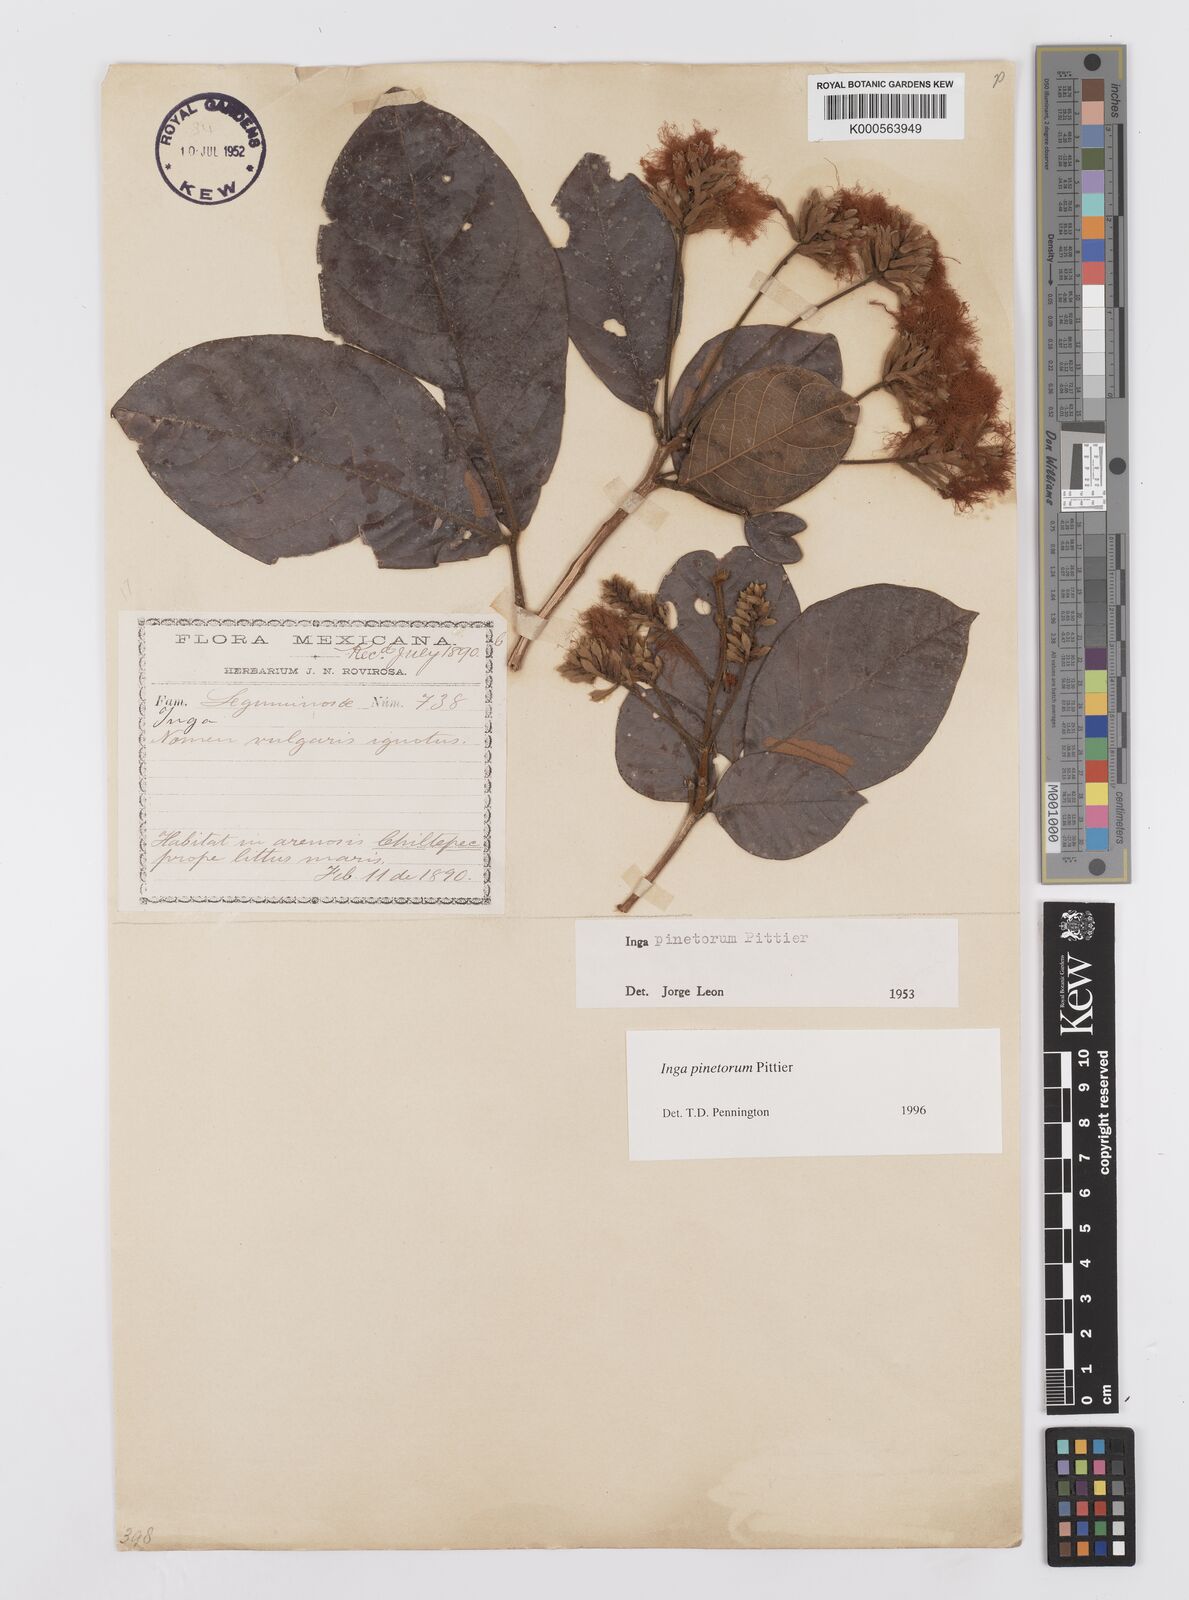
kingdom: Plantae
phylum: Tracheophyta
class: Magnoliopsida
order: Fabales
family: Fabaceae
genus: Inga
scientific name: Inga pinetorum
